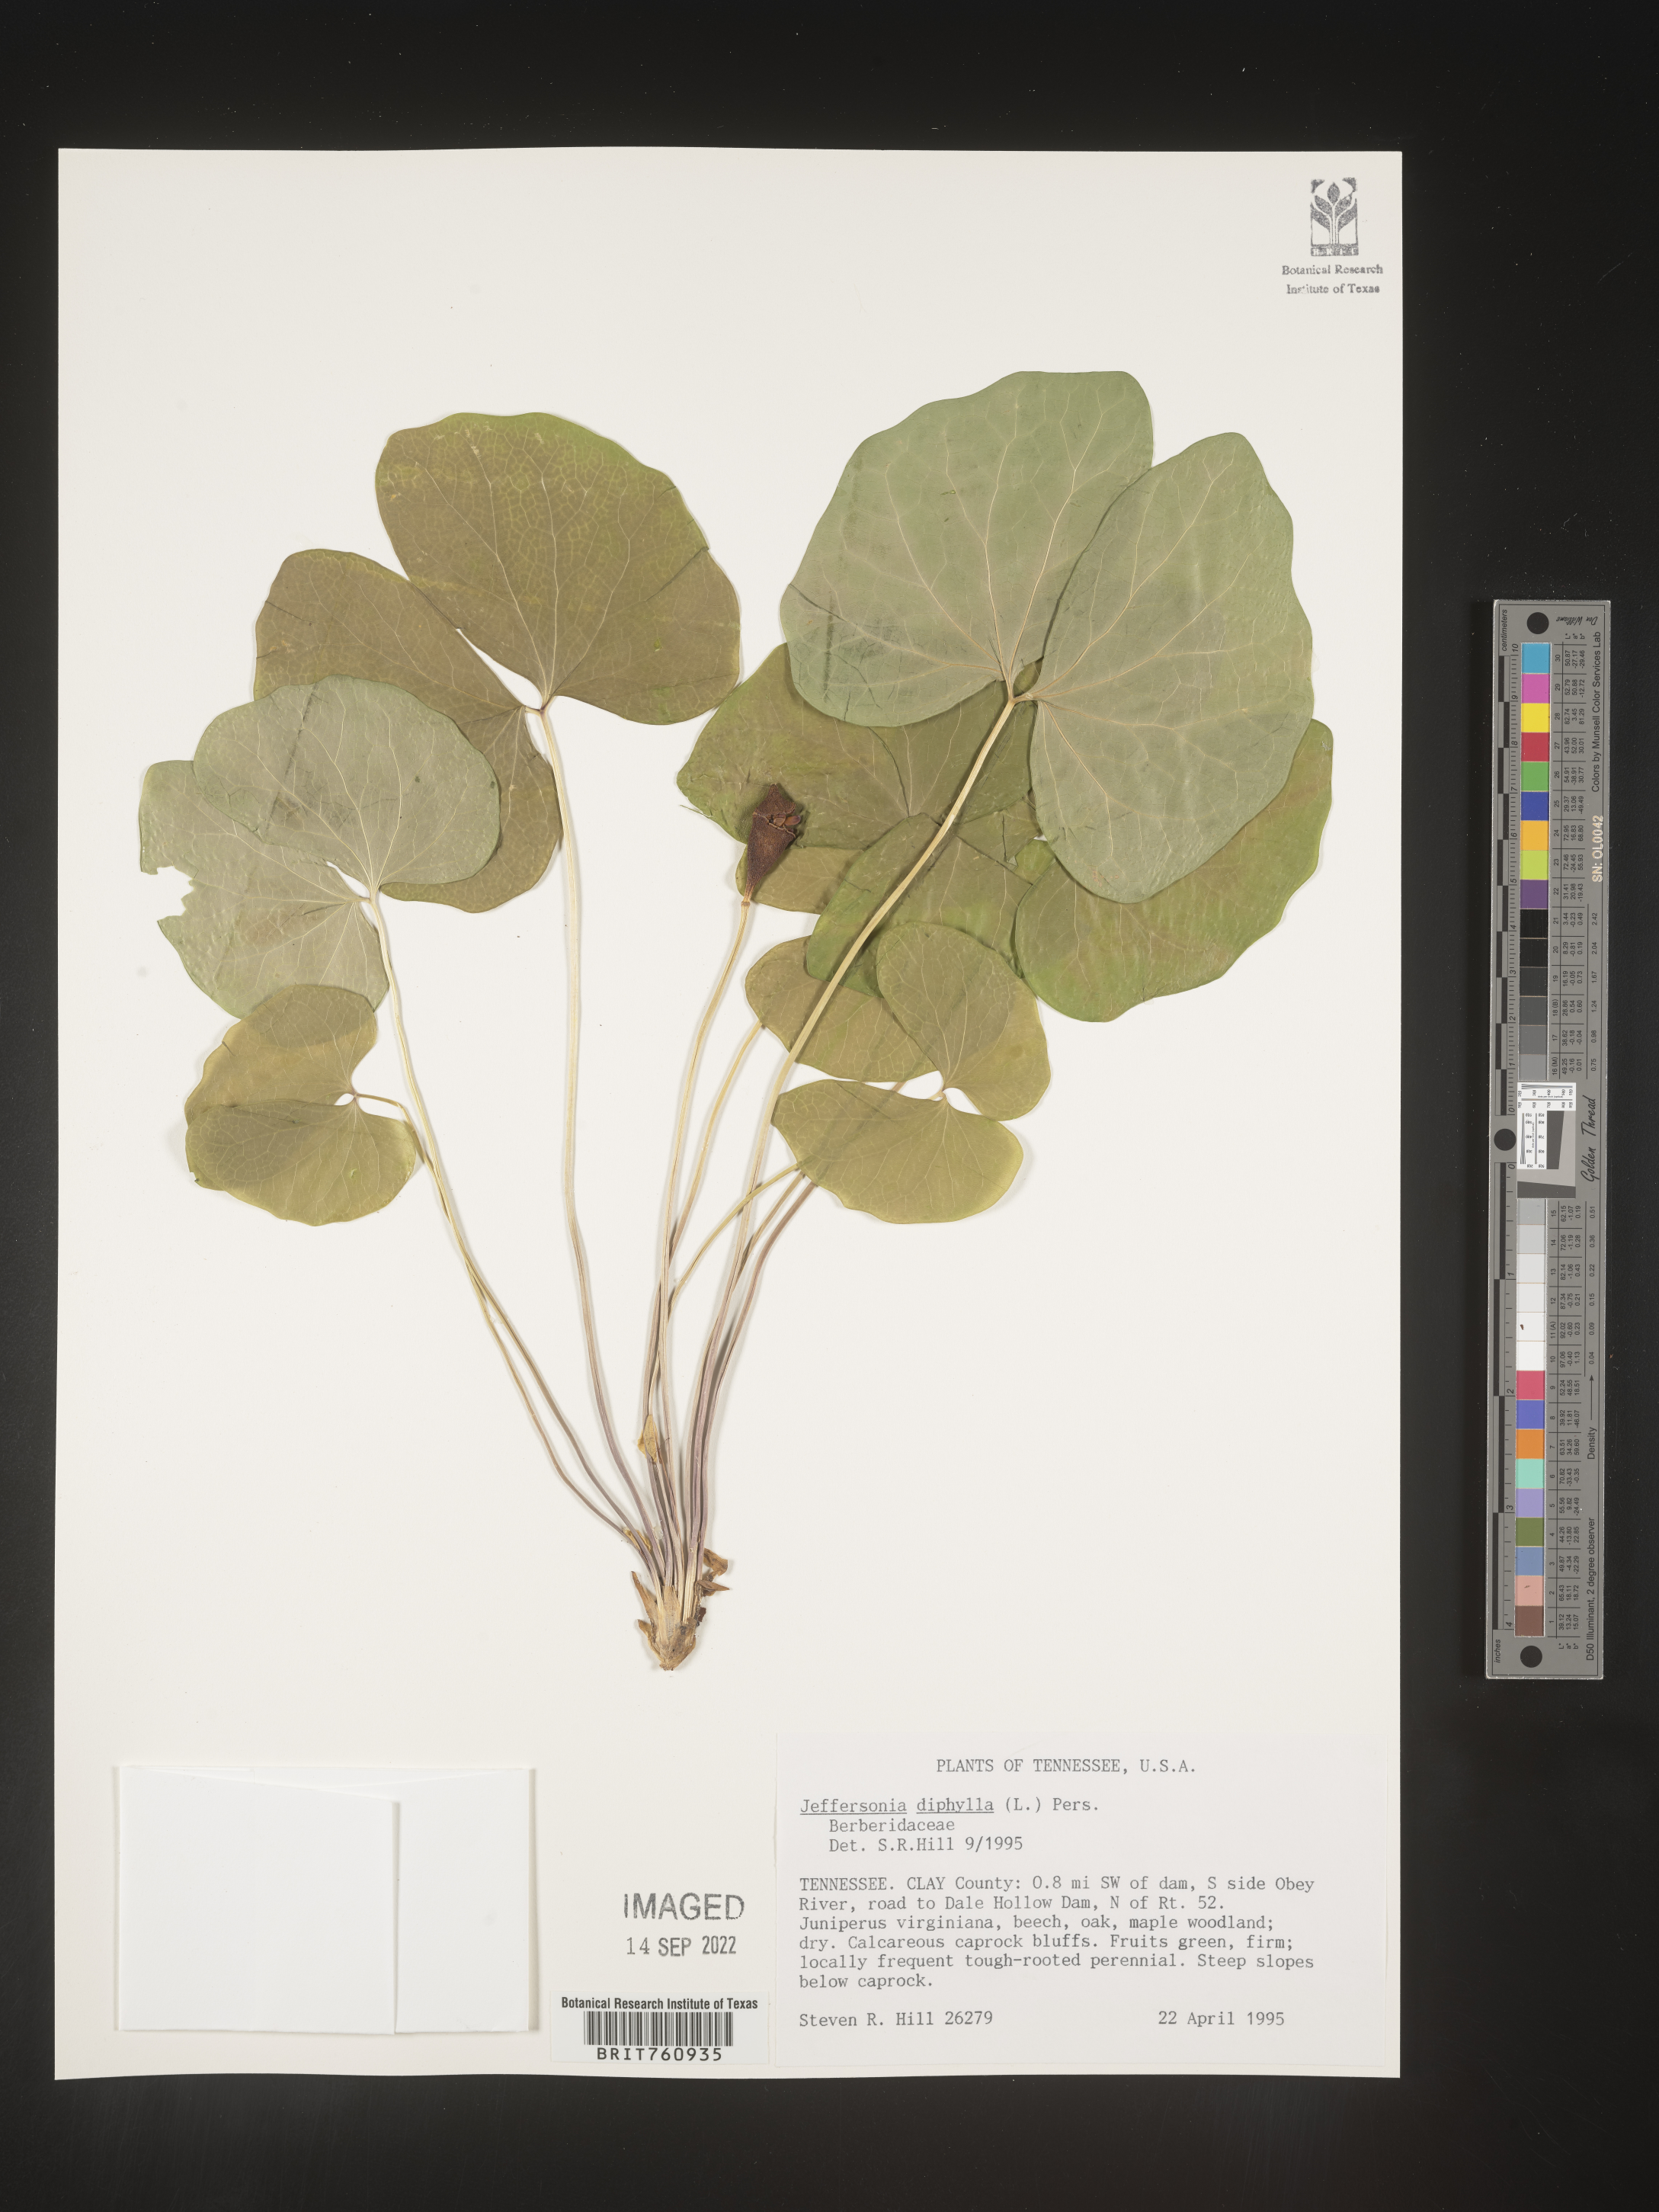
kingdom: Plantae
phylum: Tracheophyta
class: Magnoliopsida
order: Ranunculales
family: Berberidaceae
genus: Jeffersonia
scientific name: Jeffersonia
